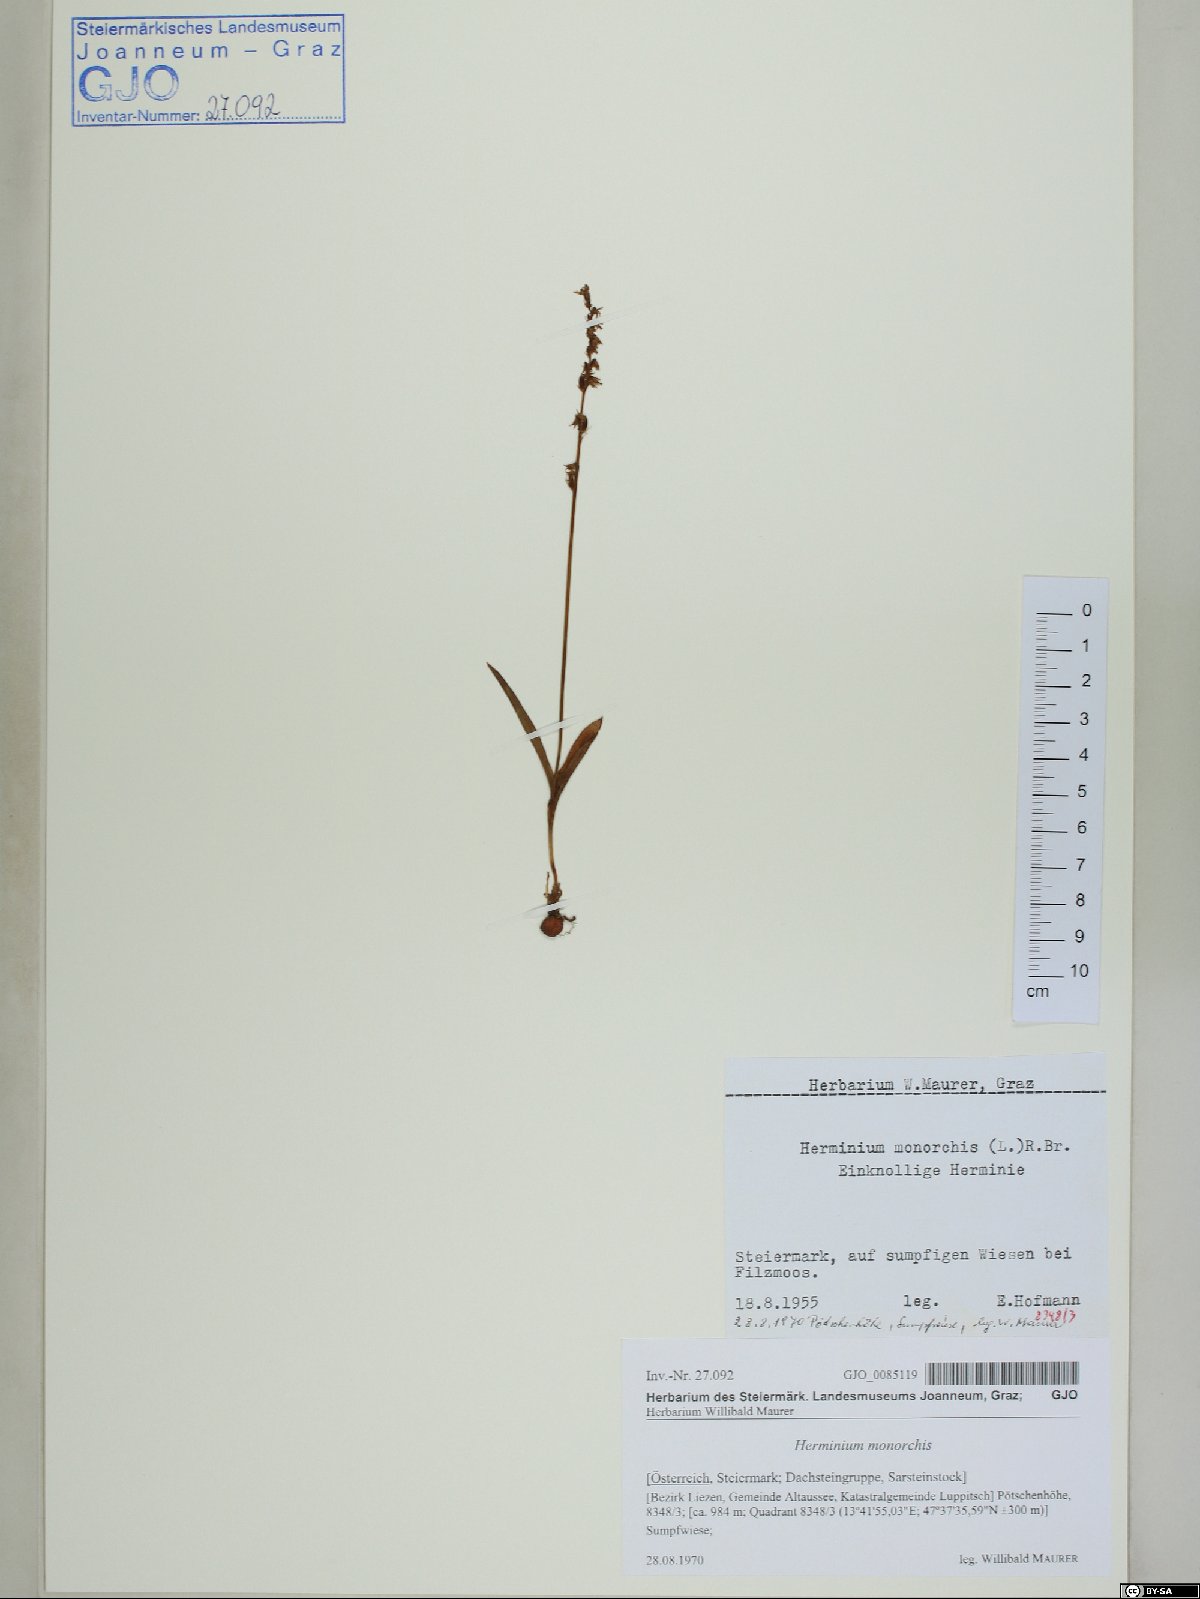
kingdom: Plantae
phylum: Tracheophyta
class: Liliopsida
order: Asparagales
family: Orchidaceae
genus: Herminium
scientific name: Herminium monorchis
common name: Musk orchid
